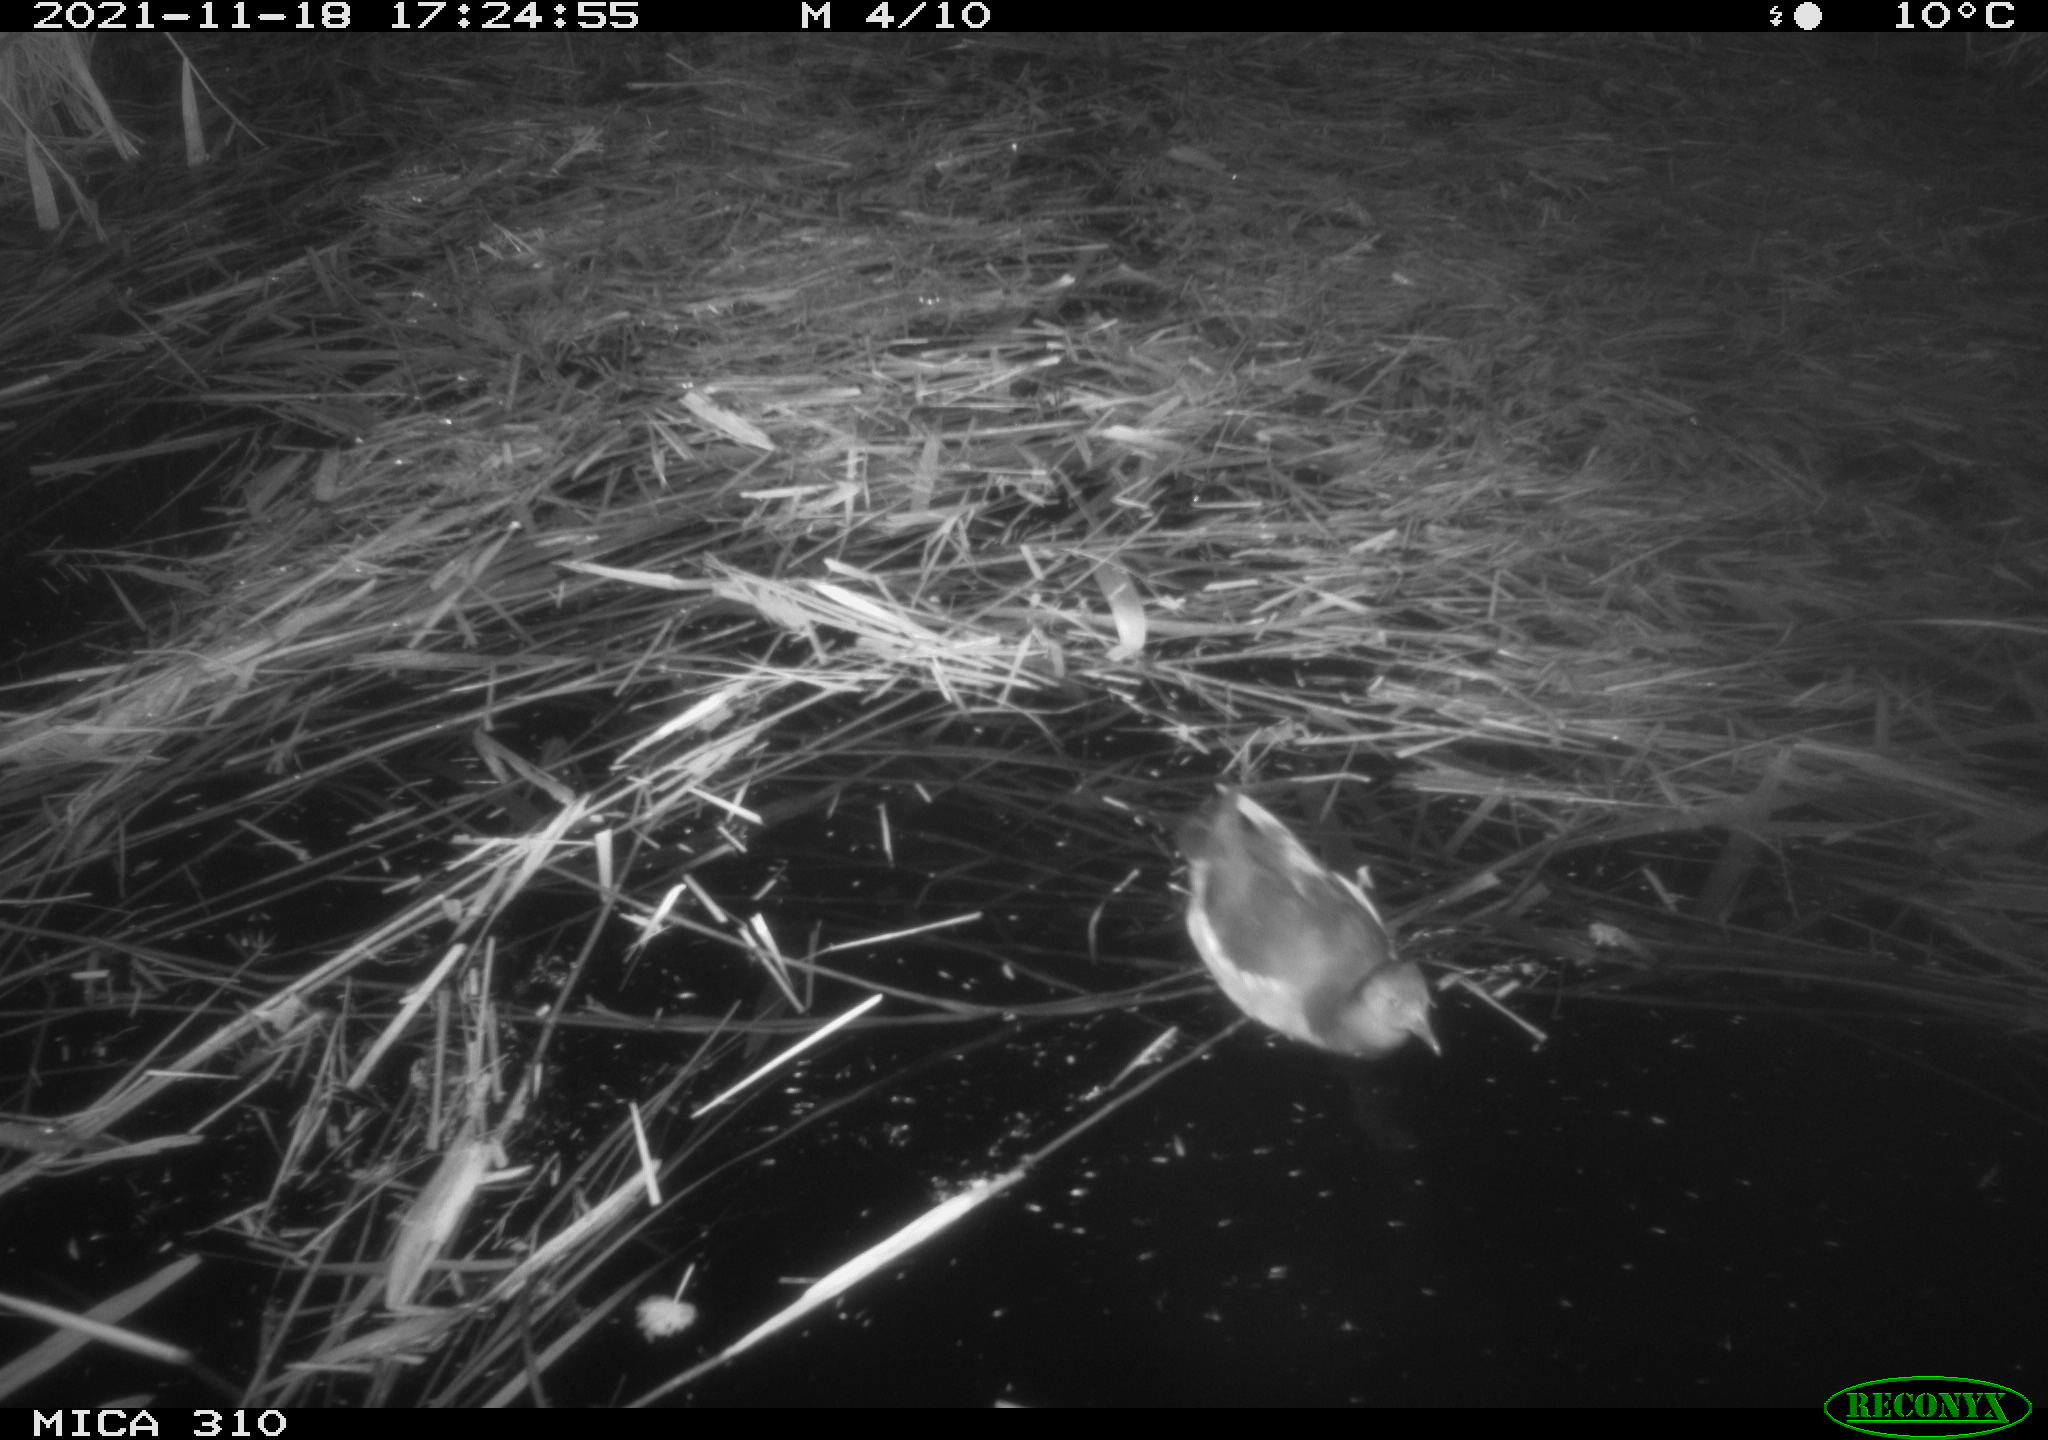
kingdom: Animalia
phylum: Chordata
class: Aves
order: Gruiformes
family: Rallidae
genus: Gallinula
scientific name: Gallinula chloropus
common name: Common moorhen
